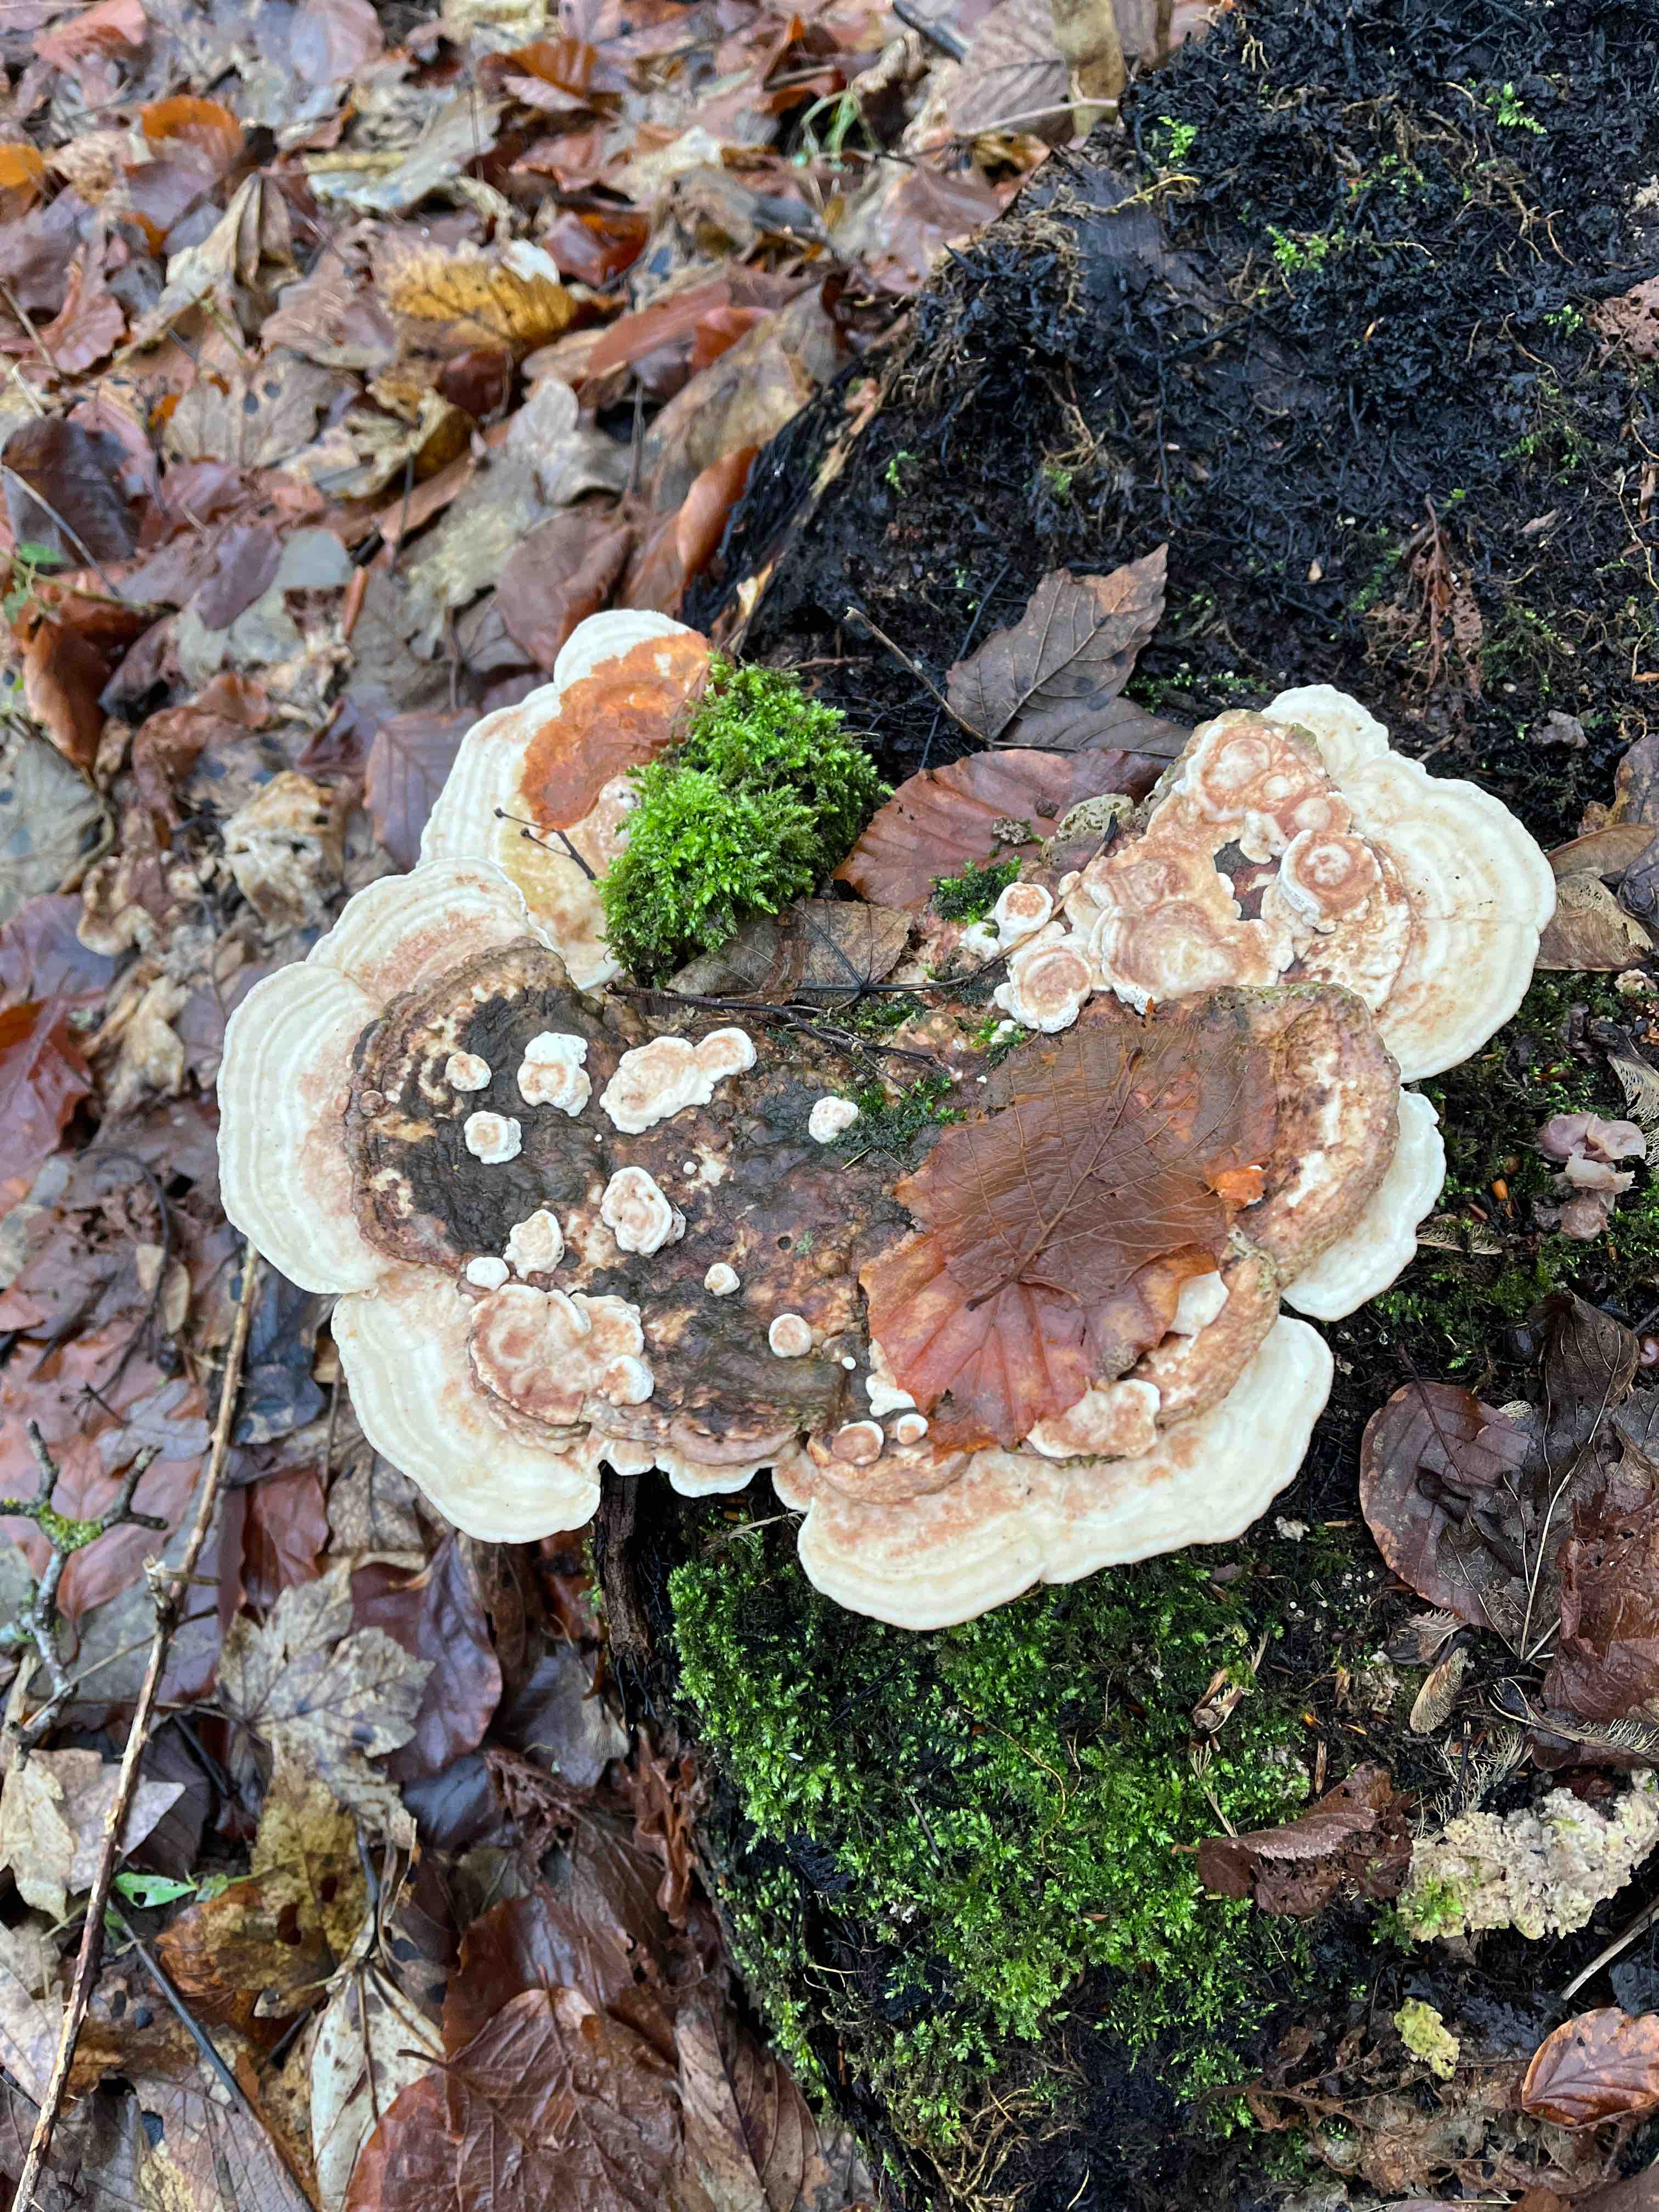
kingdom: Fungi
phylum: Basidiomycota
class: Agaricomycetes
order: Polyporales
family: Polyporaceae
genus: Trametes
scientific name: Trametes gibbosa
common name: puklet læderporesvamp
